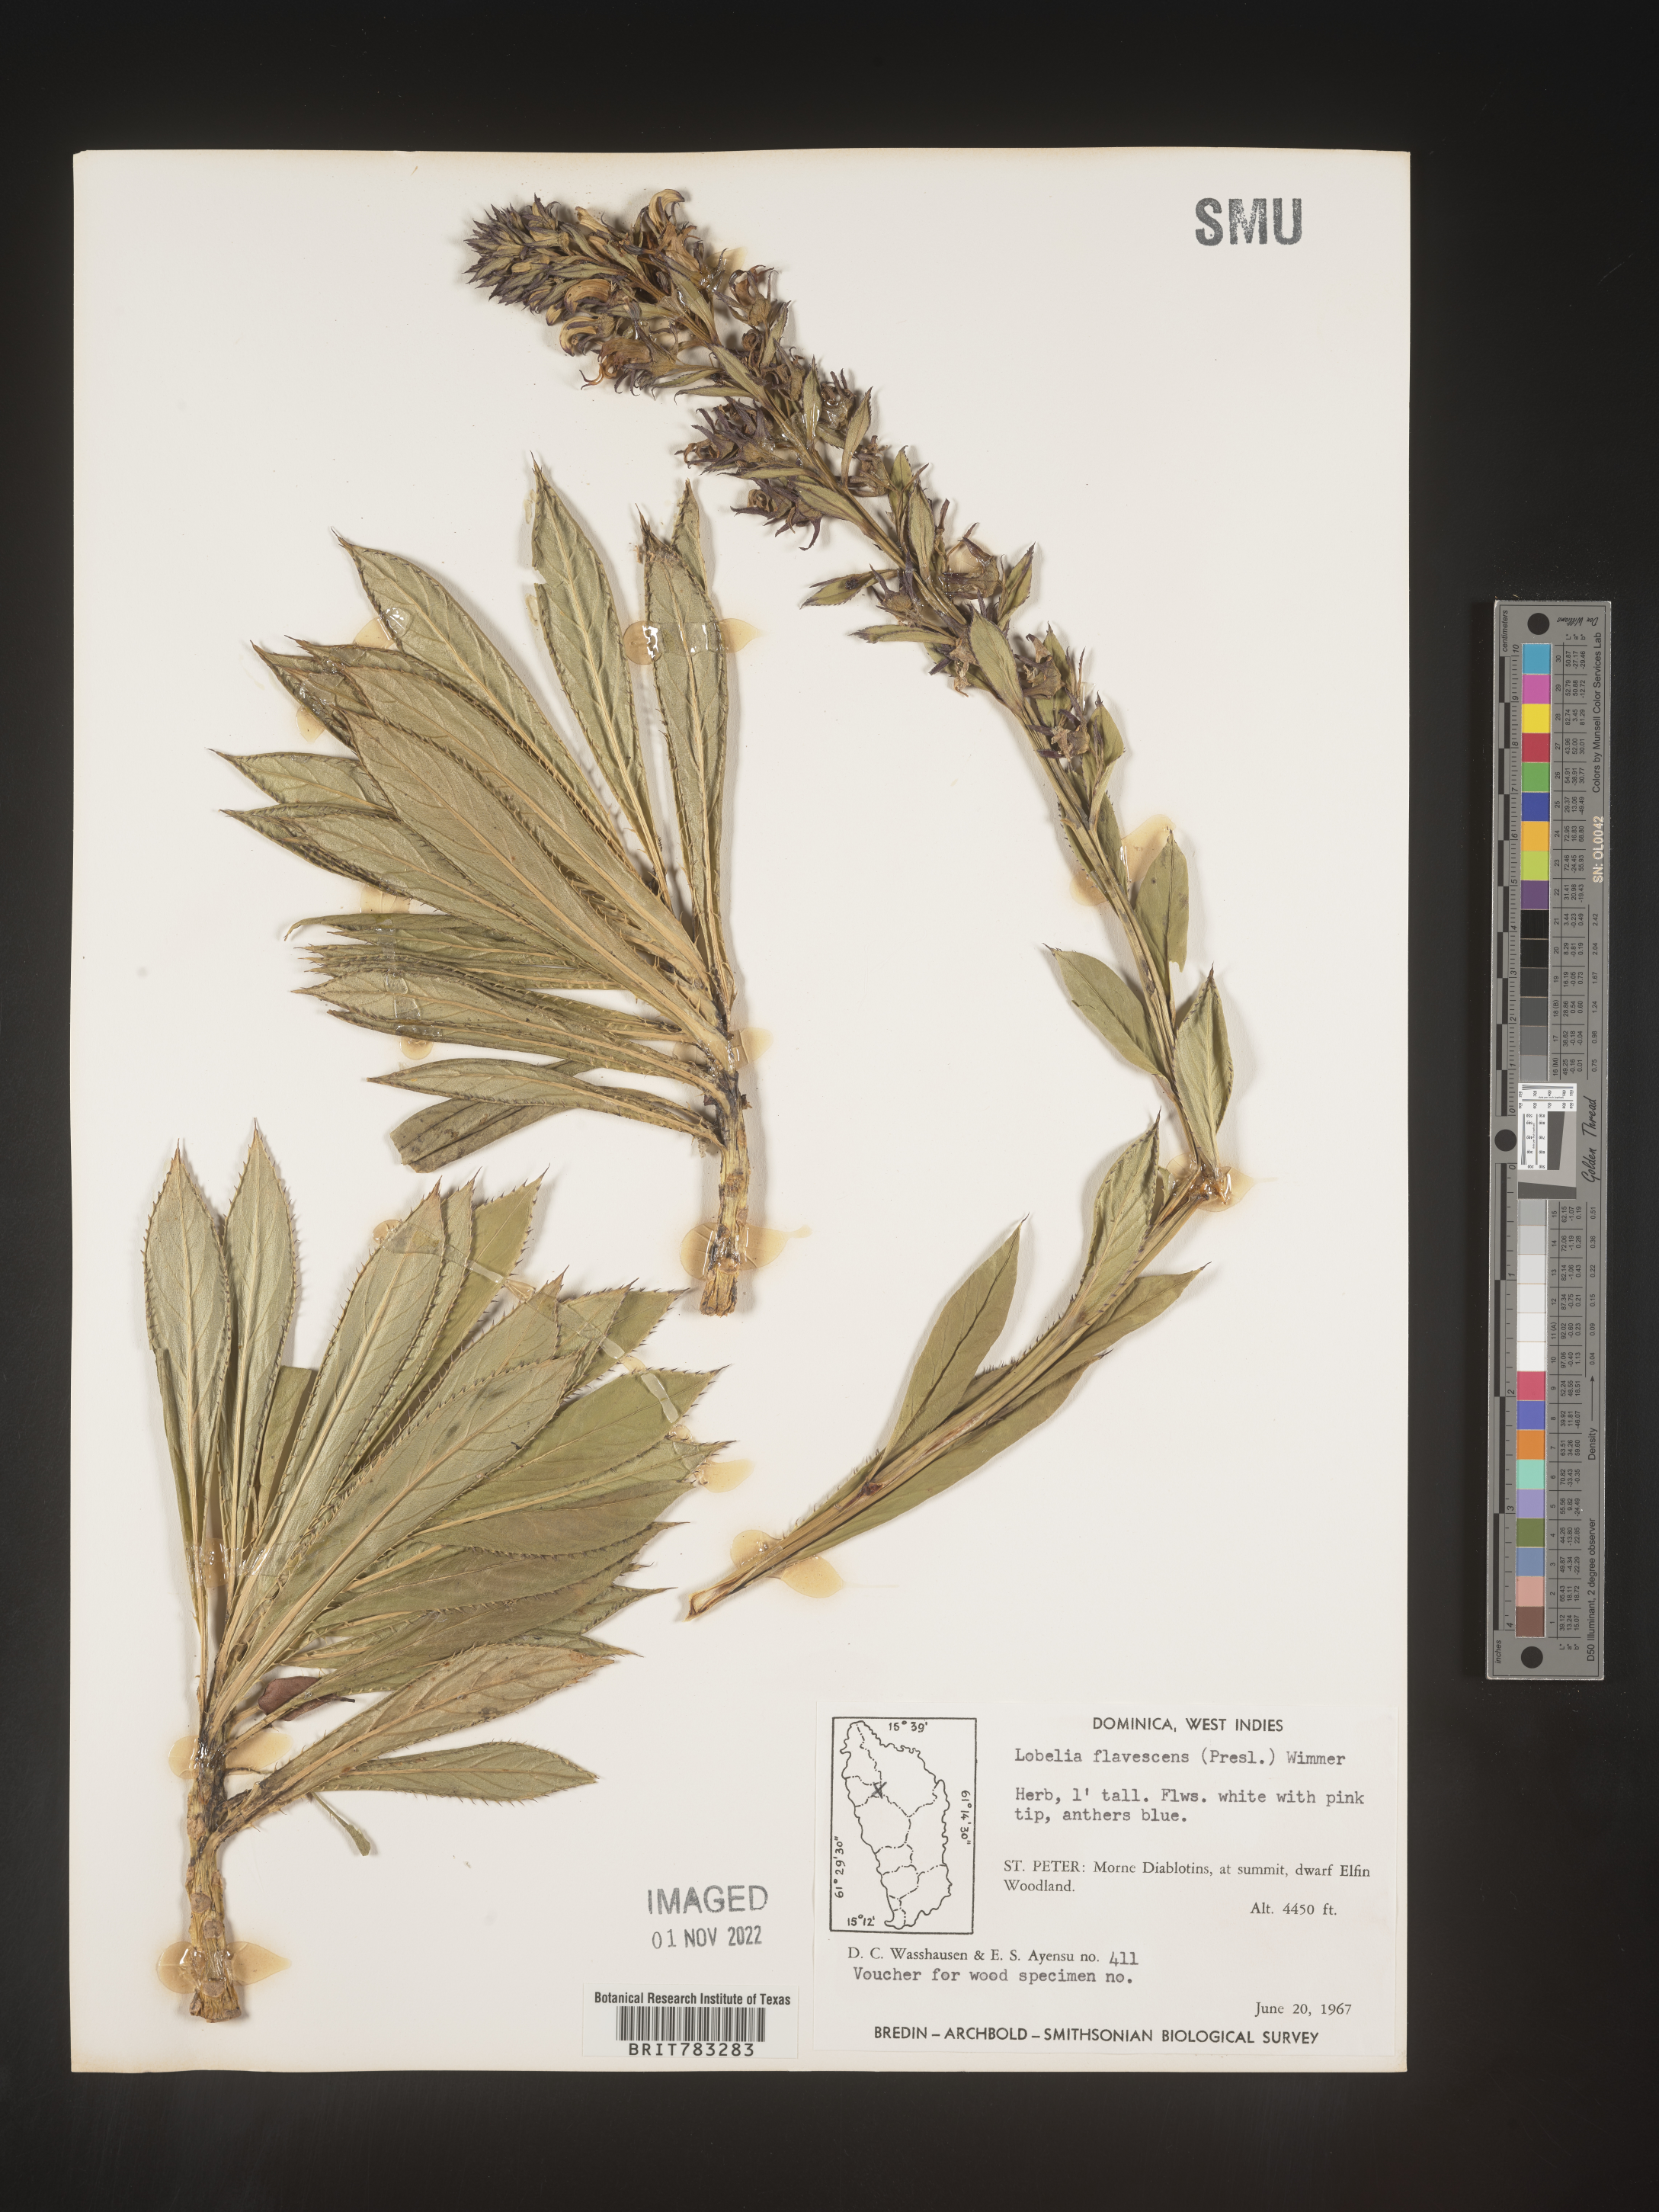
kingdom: Plantae
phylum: Tracheophyta
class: Magnoliopsida
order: Asterales
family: Campanulaceae
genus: Lobelia
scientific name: Lobelia
